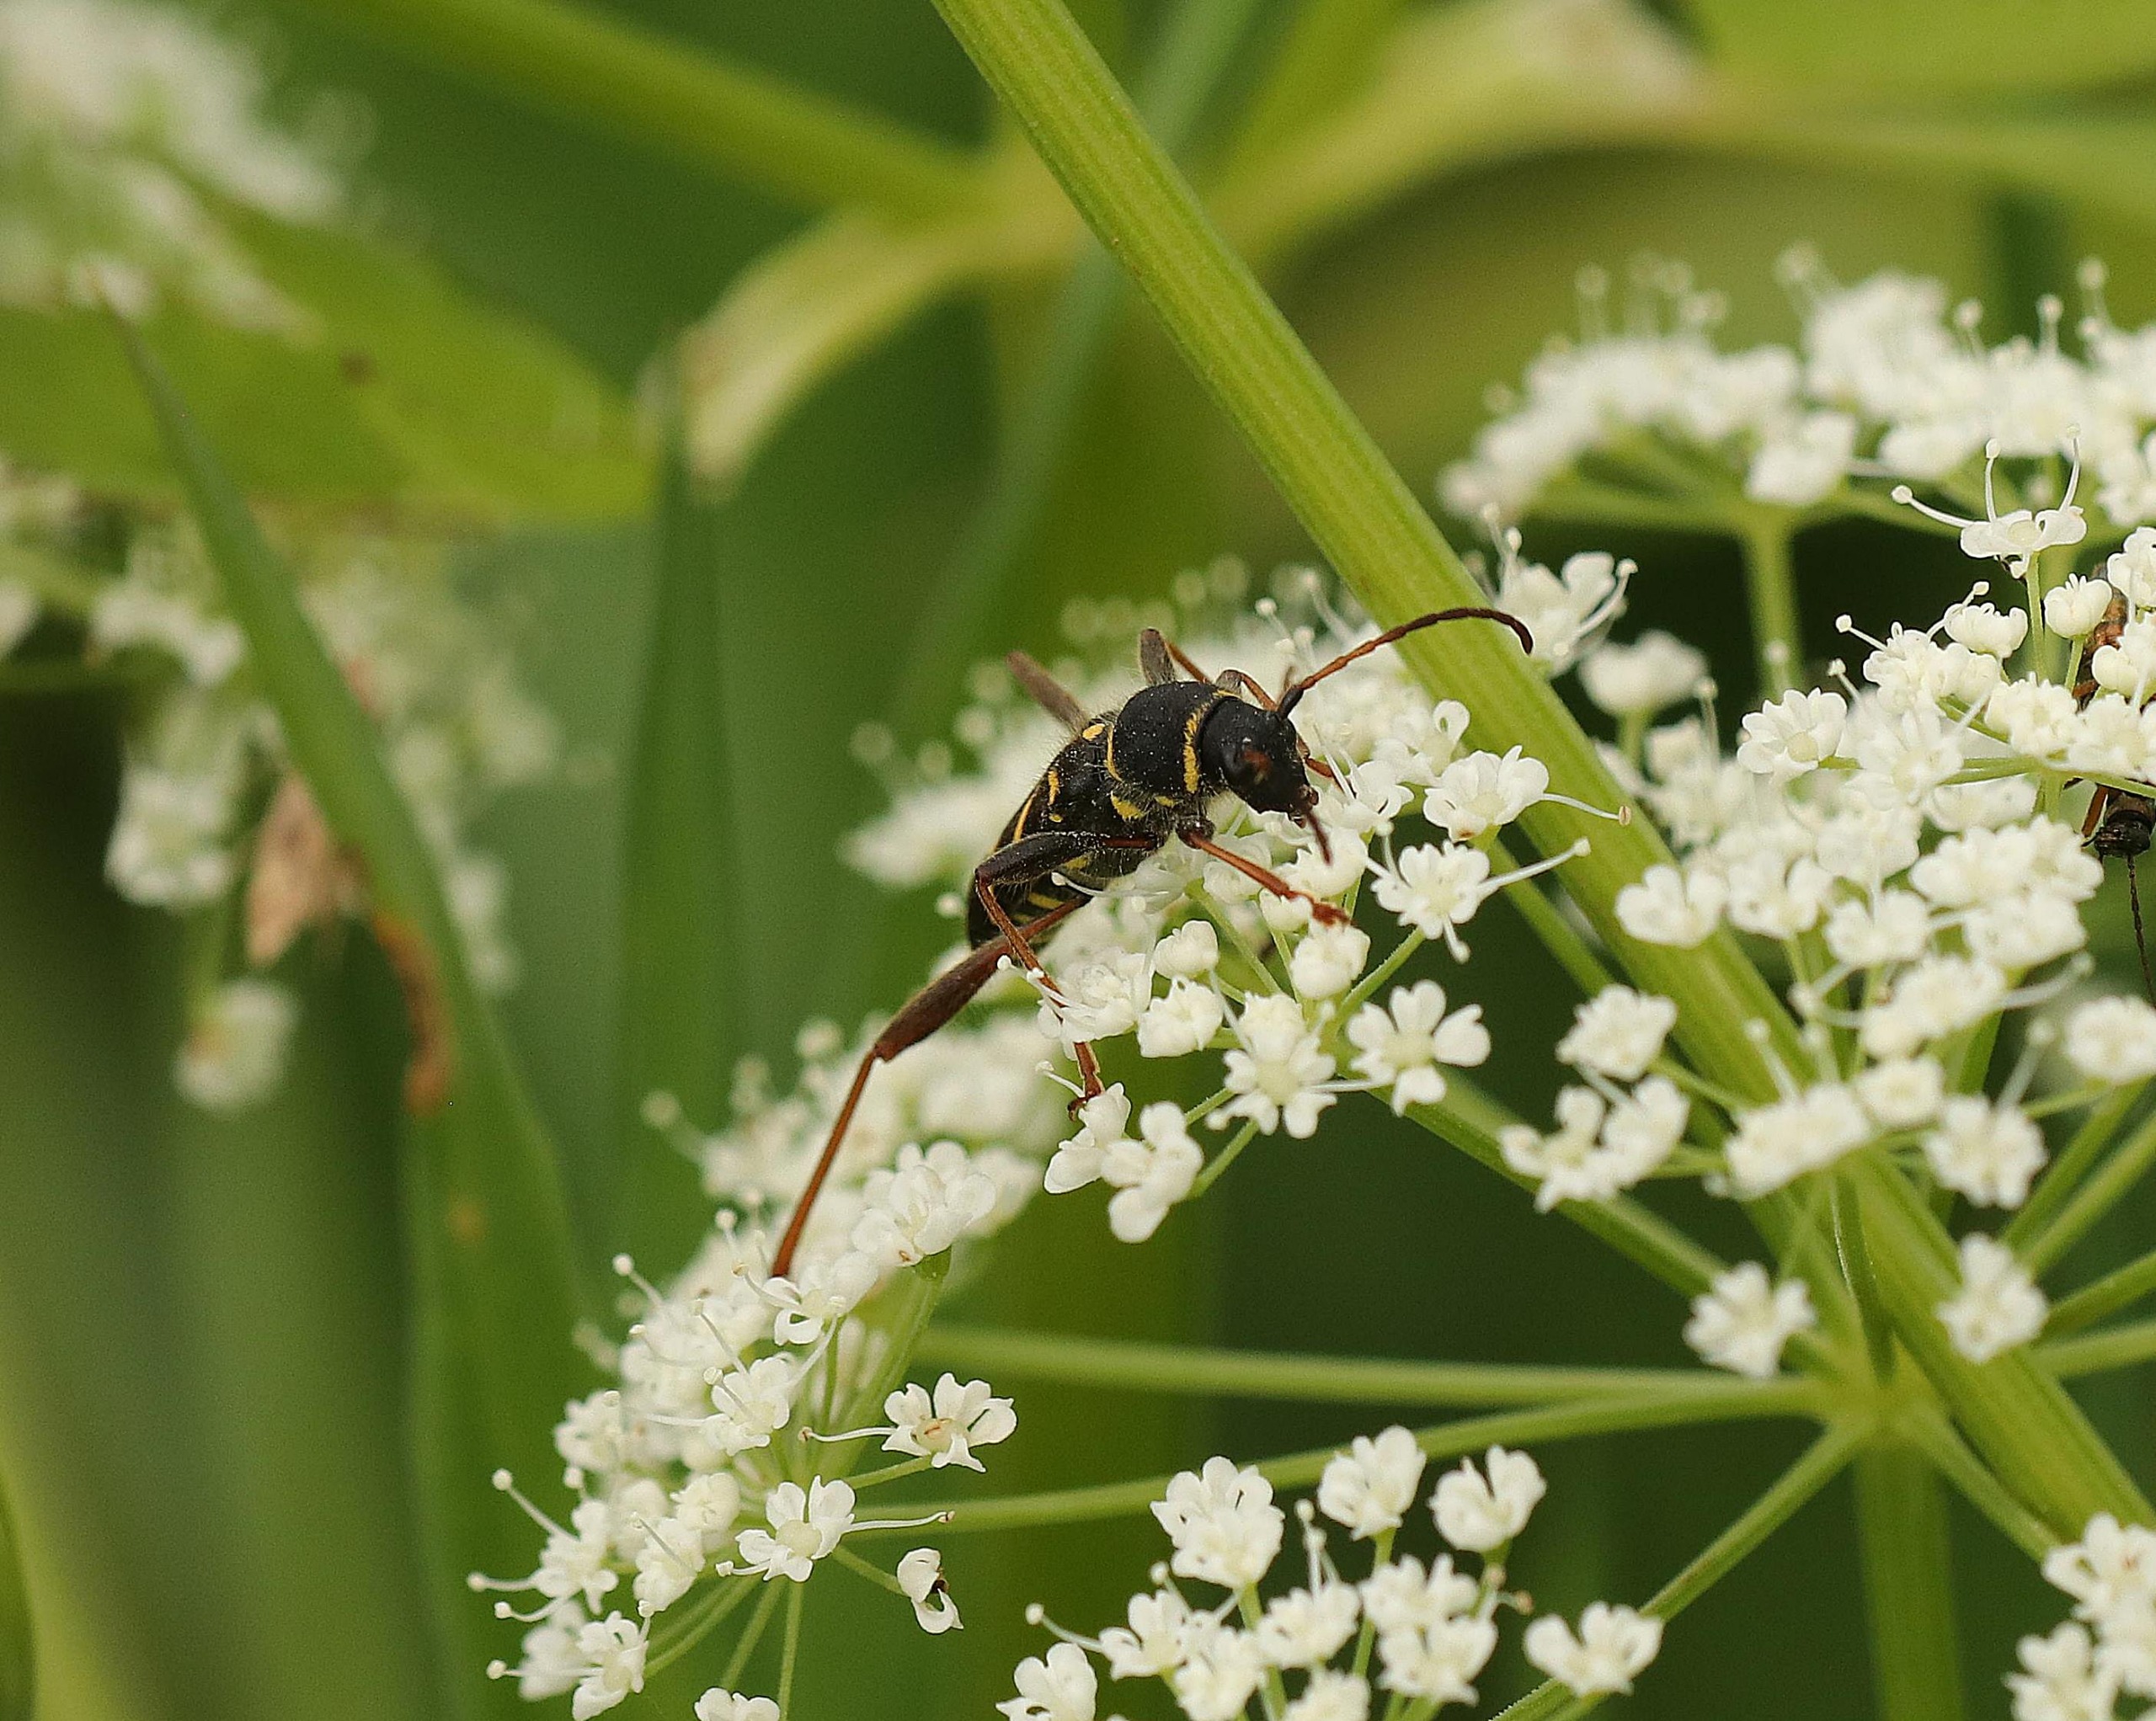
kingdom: Animalia
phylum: Arthropoda
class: Insecta
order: Coleoptera
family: Cerambycidae
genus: Clytus
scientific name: Clytus arietis
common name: Lille hvepsebuk
